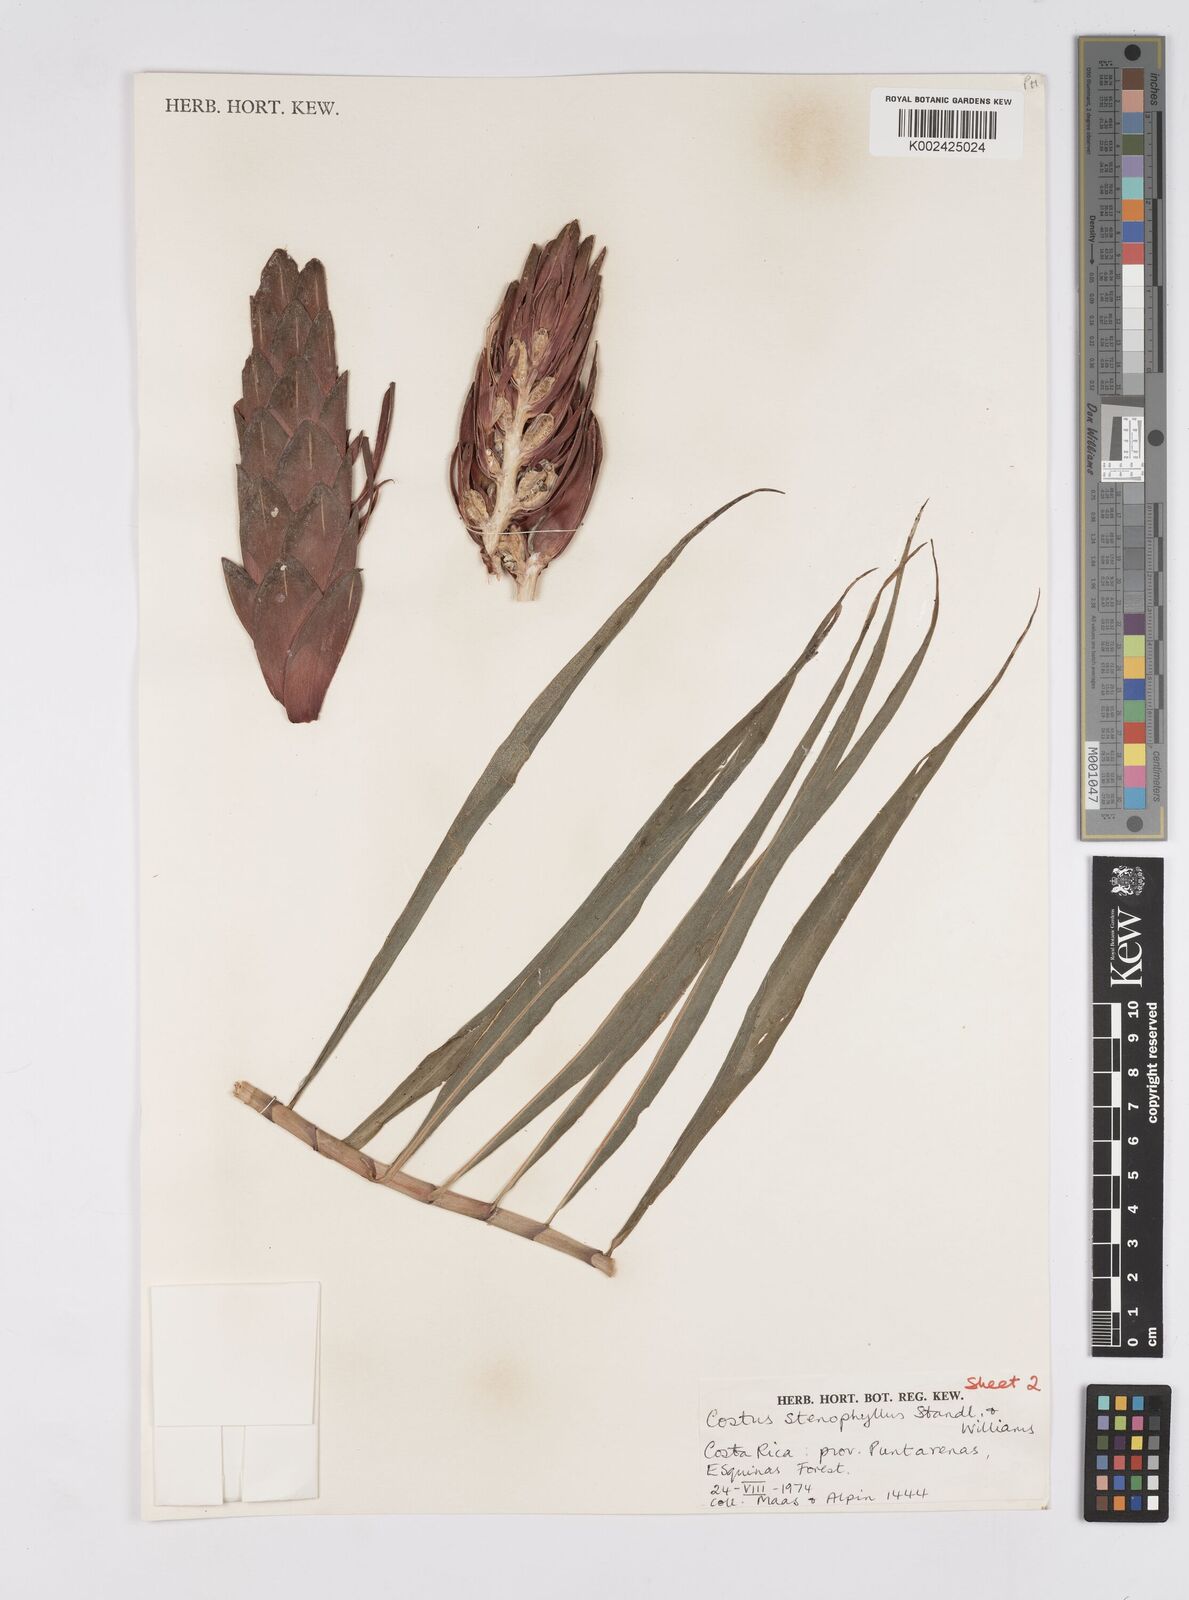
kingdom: Plantae
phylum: Tracheophyta
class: Liliopsida
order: Zingiberales
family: Costaceae
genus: Costus
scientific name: Costus stenophyllus
